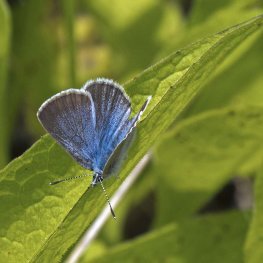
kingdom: Animalia
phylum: Arthropoda
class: Insecta
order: Lepidoptera
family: Lycaenidae
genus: Glaucopsyche
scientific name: Glaucopsyche lygdamus
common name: Silvery Blue
